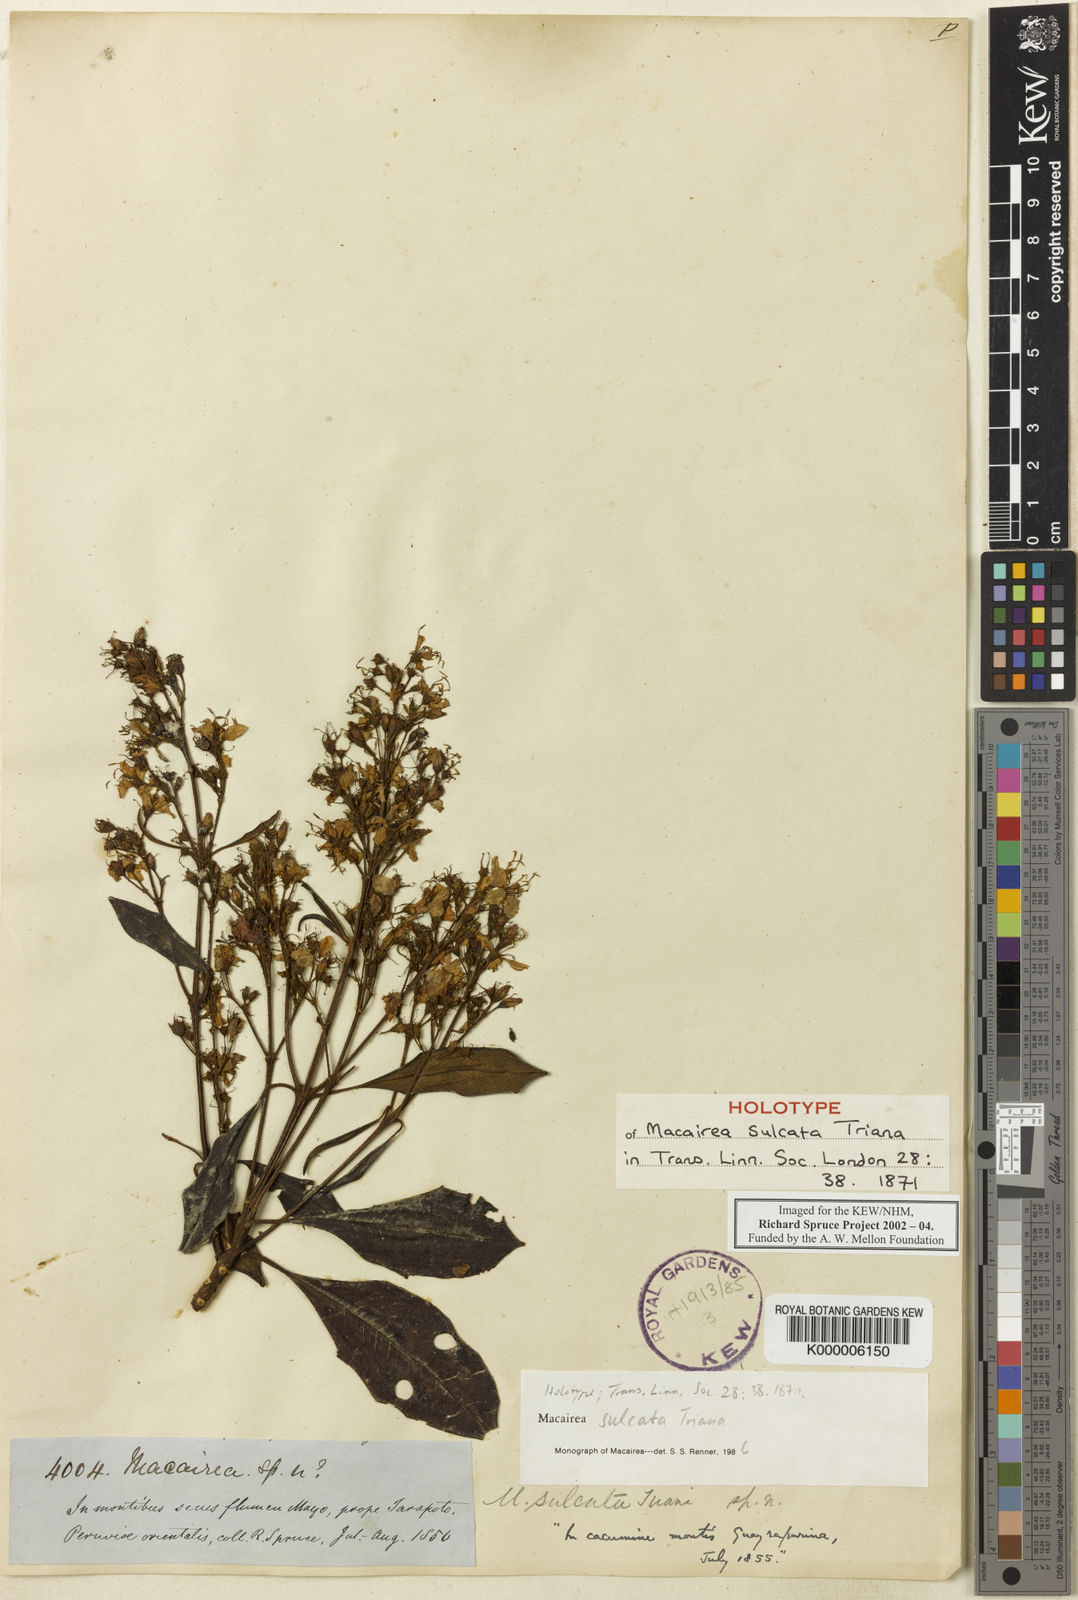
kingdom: Plantae
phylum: Tracheophyta
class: Magnoliopsida
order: Myrtales
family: Melastomataceae
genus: Macairea
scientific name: Macairea sulcata
